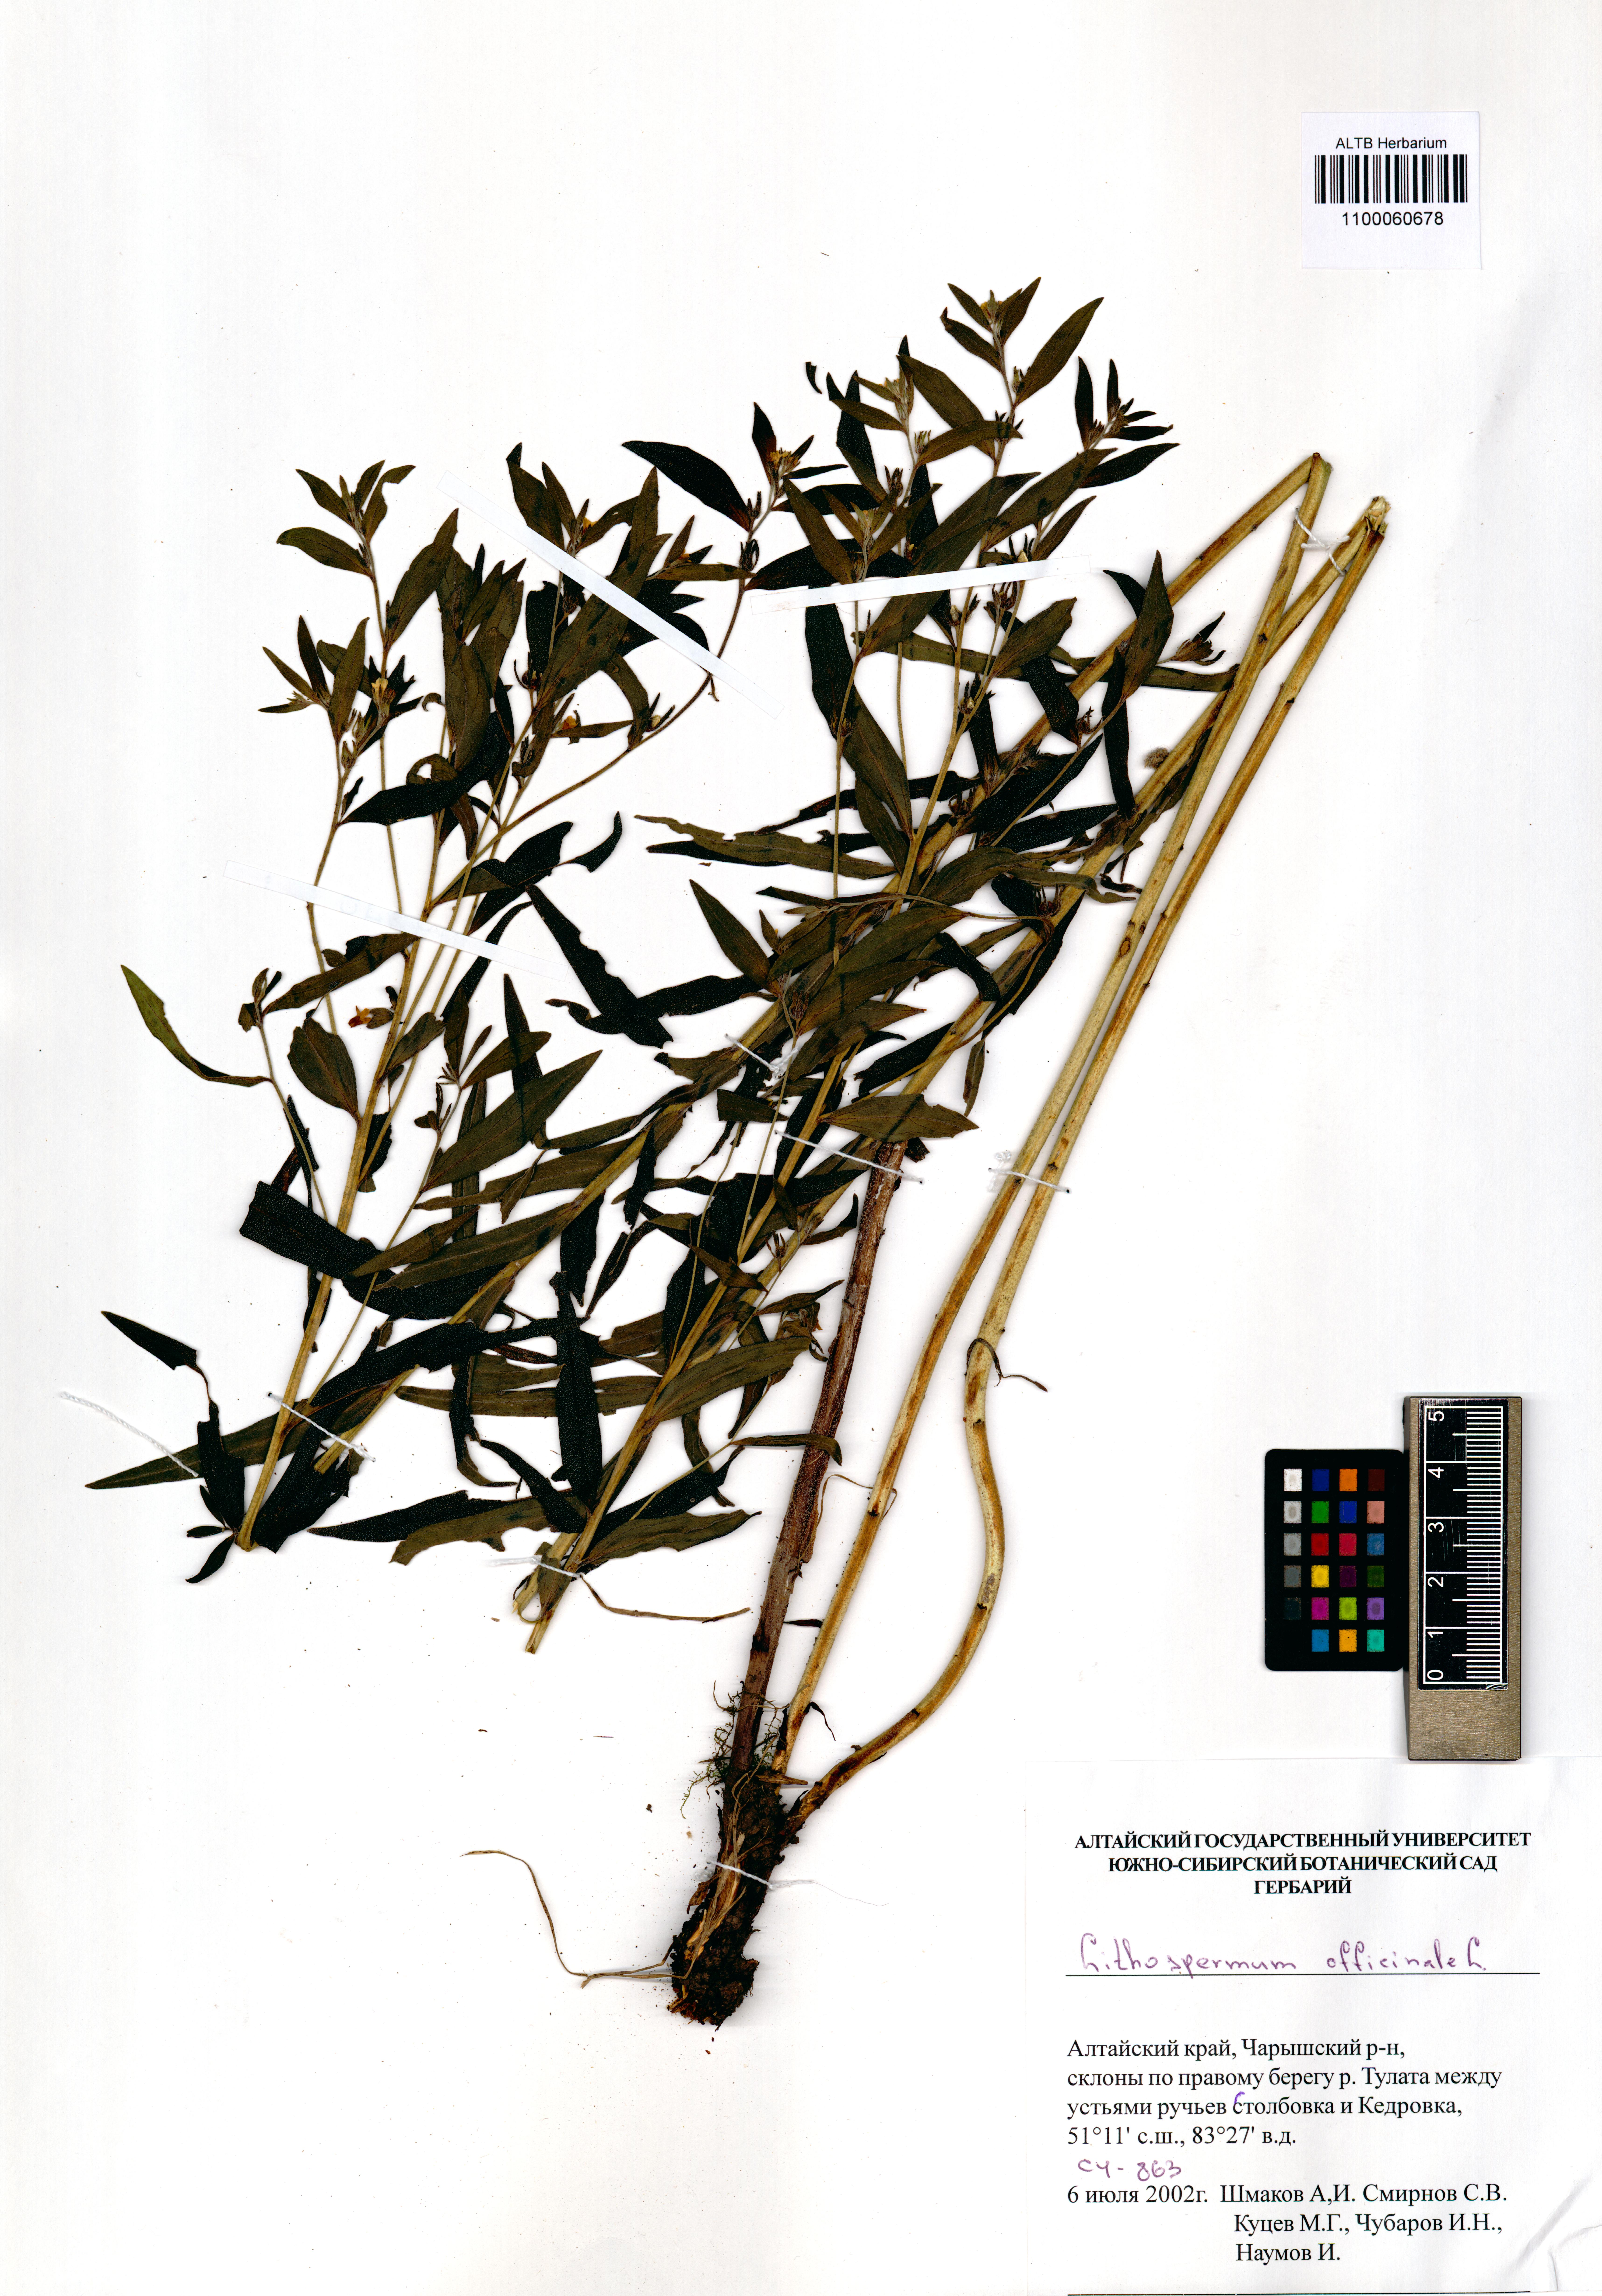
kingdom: Plantae
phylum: Tracheophyta
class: Magnoliopsida
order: Boraginales
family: Boraginaceae
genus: Lithospermum
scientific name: Lithospermum officinale
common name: Common gromwell
